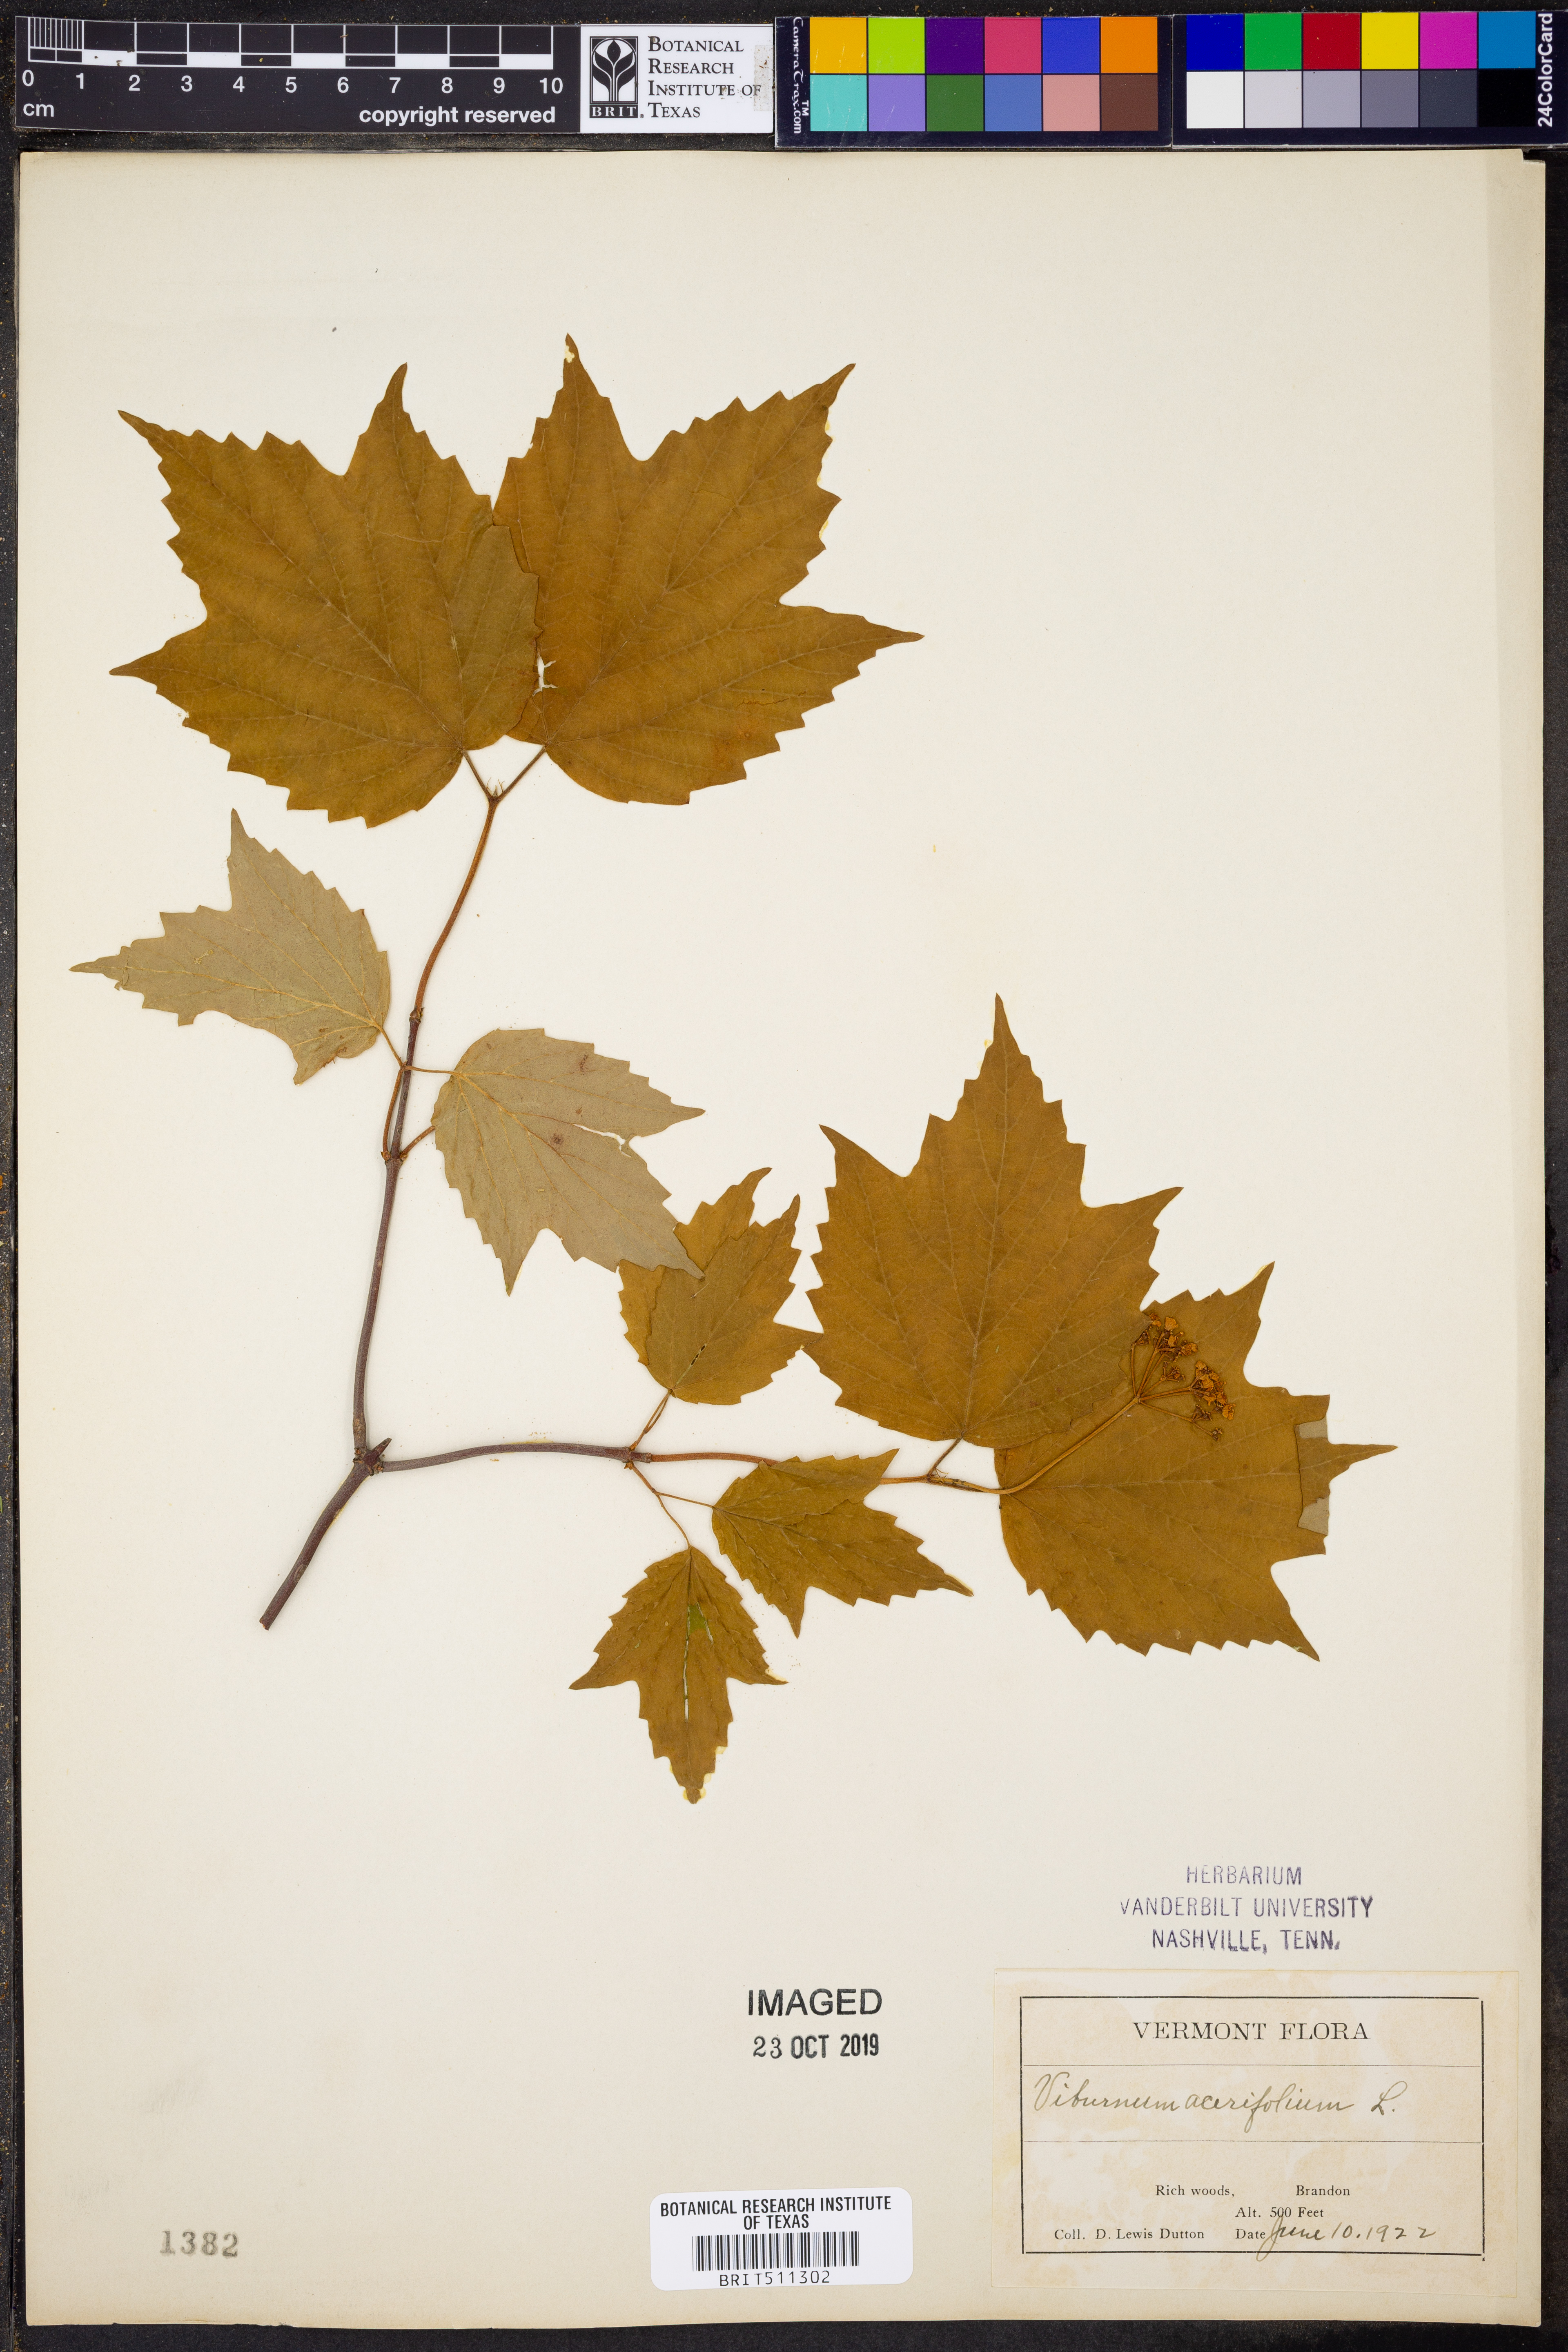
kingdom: Plantae
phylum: Tracheophyta
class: Magnoliopsida
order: Dipsacales
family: Viburnaceae
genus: Viburnum
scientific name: Viburnum acerifolium
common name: Dockmackie
